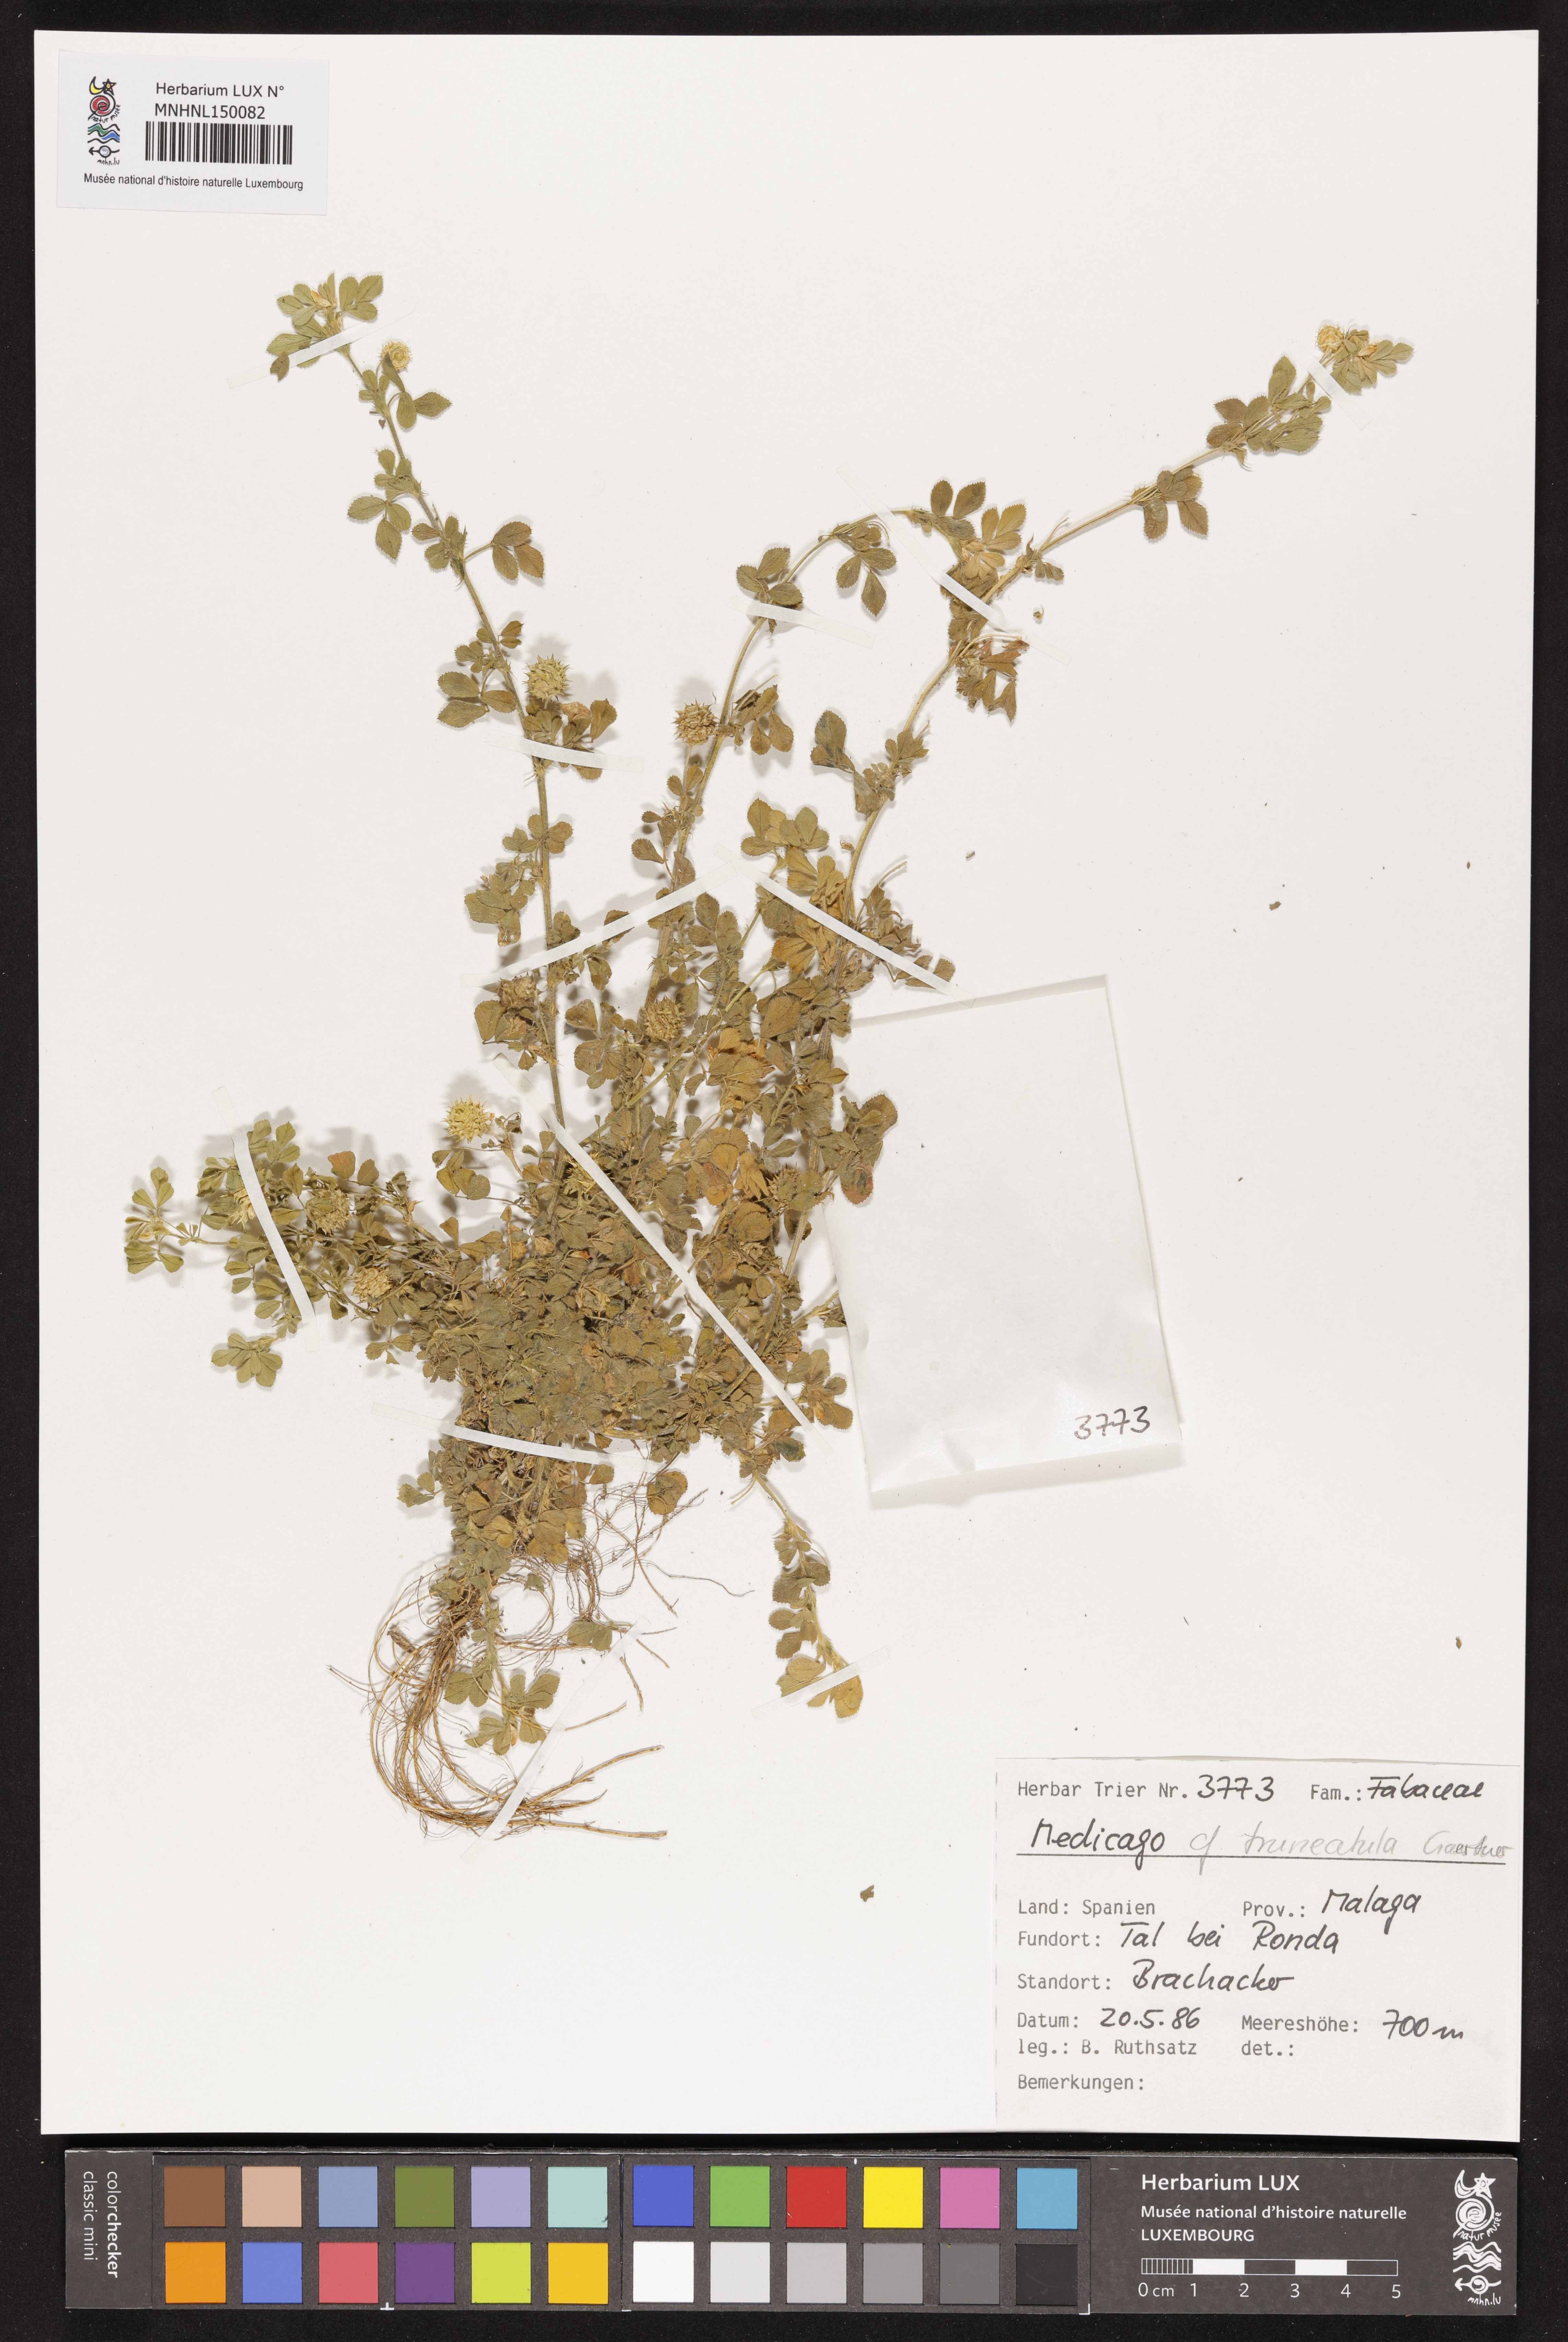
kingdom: Plantae
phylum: Tracheophyta
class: Magnoliopsida
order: Fabales
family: Fabaceae
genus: Medicago
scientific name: Medicago truncatula
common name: Strong-spined medick
